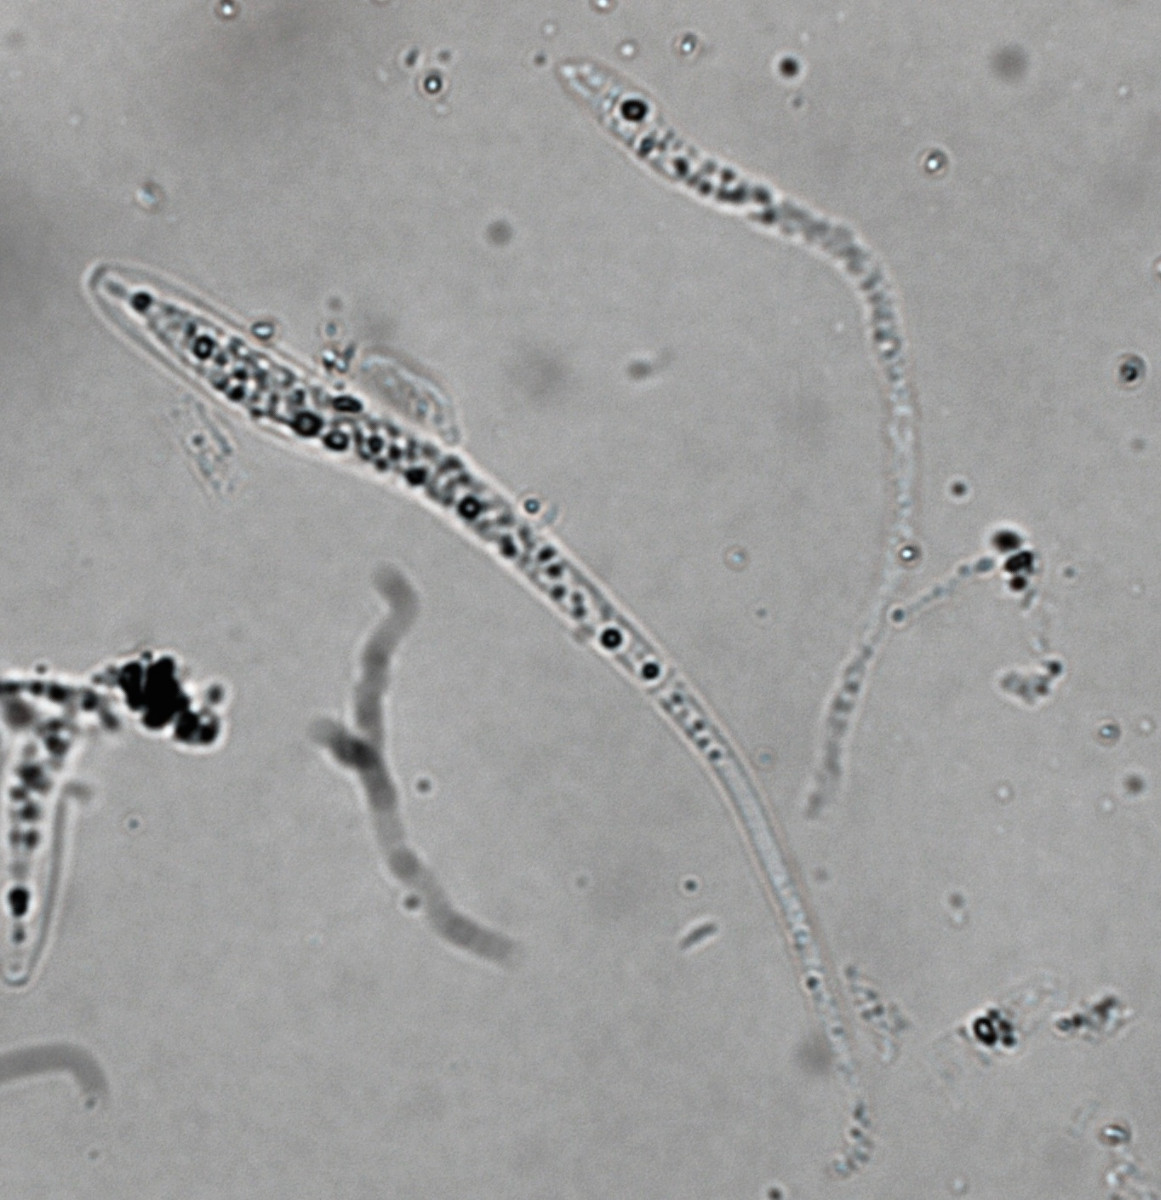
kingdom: Fungi
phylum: Ascomycota
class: Sordariomycetes
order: Xylariales
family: Diatrypaceae
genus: Diatrypella
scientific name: Diatrypella favacea
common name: klemt kulskorpe
